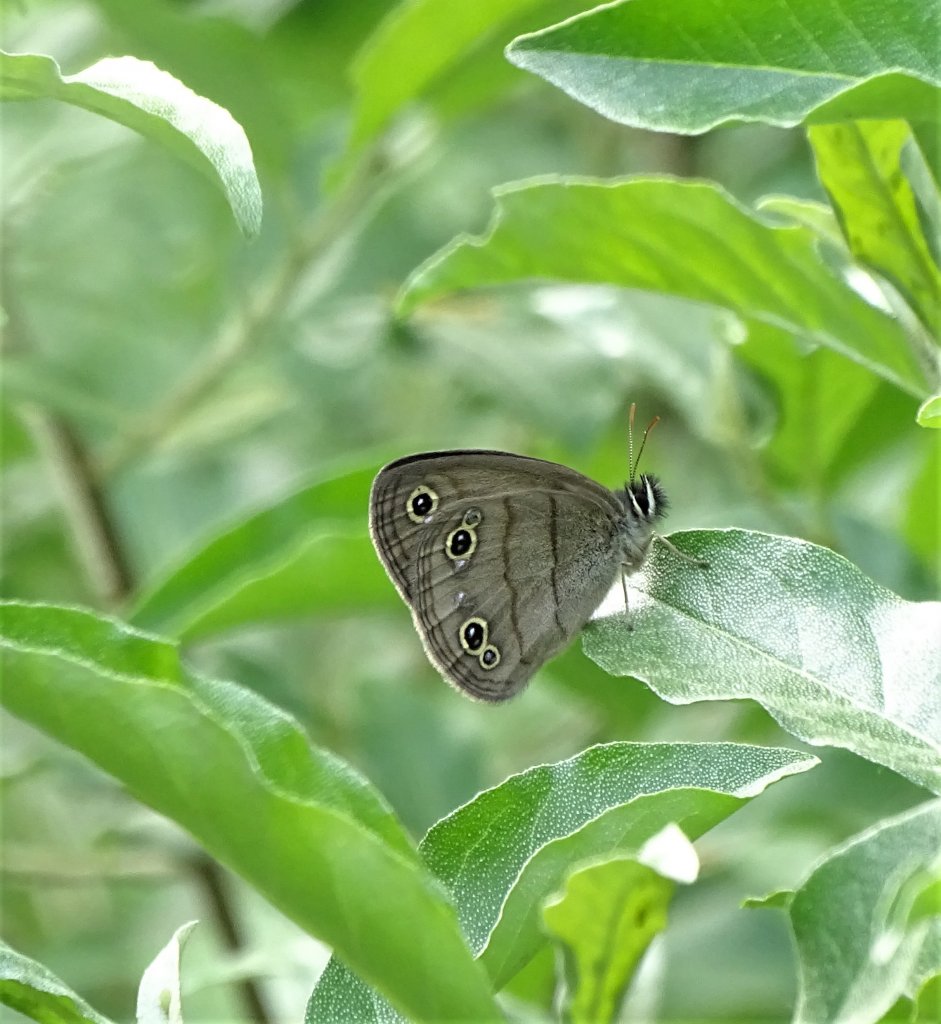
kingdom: Animalia
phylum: Arthropoda
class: Insecta
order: Lepidoptera
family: Nymphalidae
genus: Euptychia
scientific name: Euptychia cymela
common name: Little Wood Satyr
